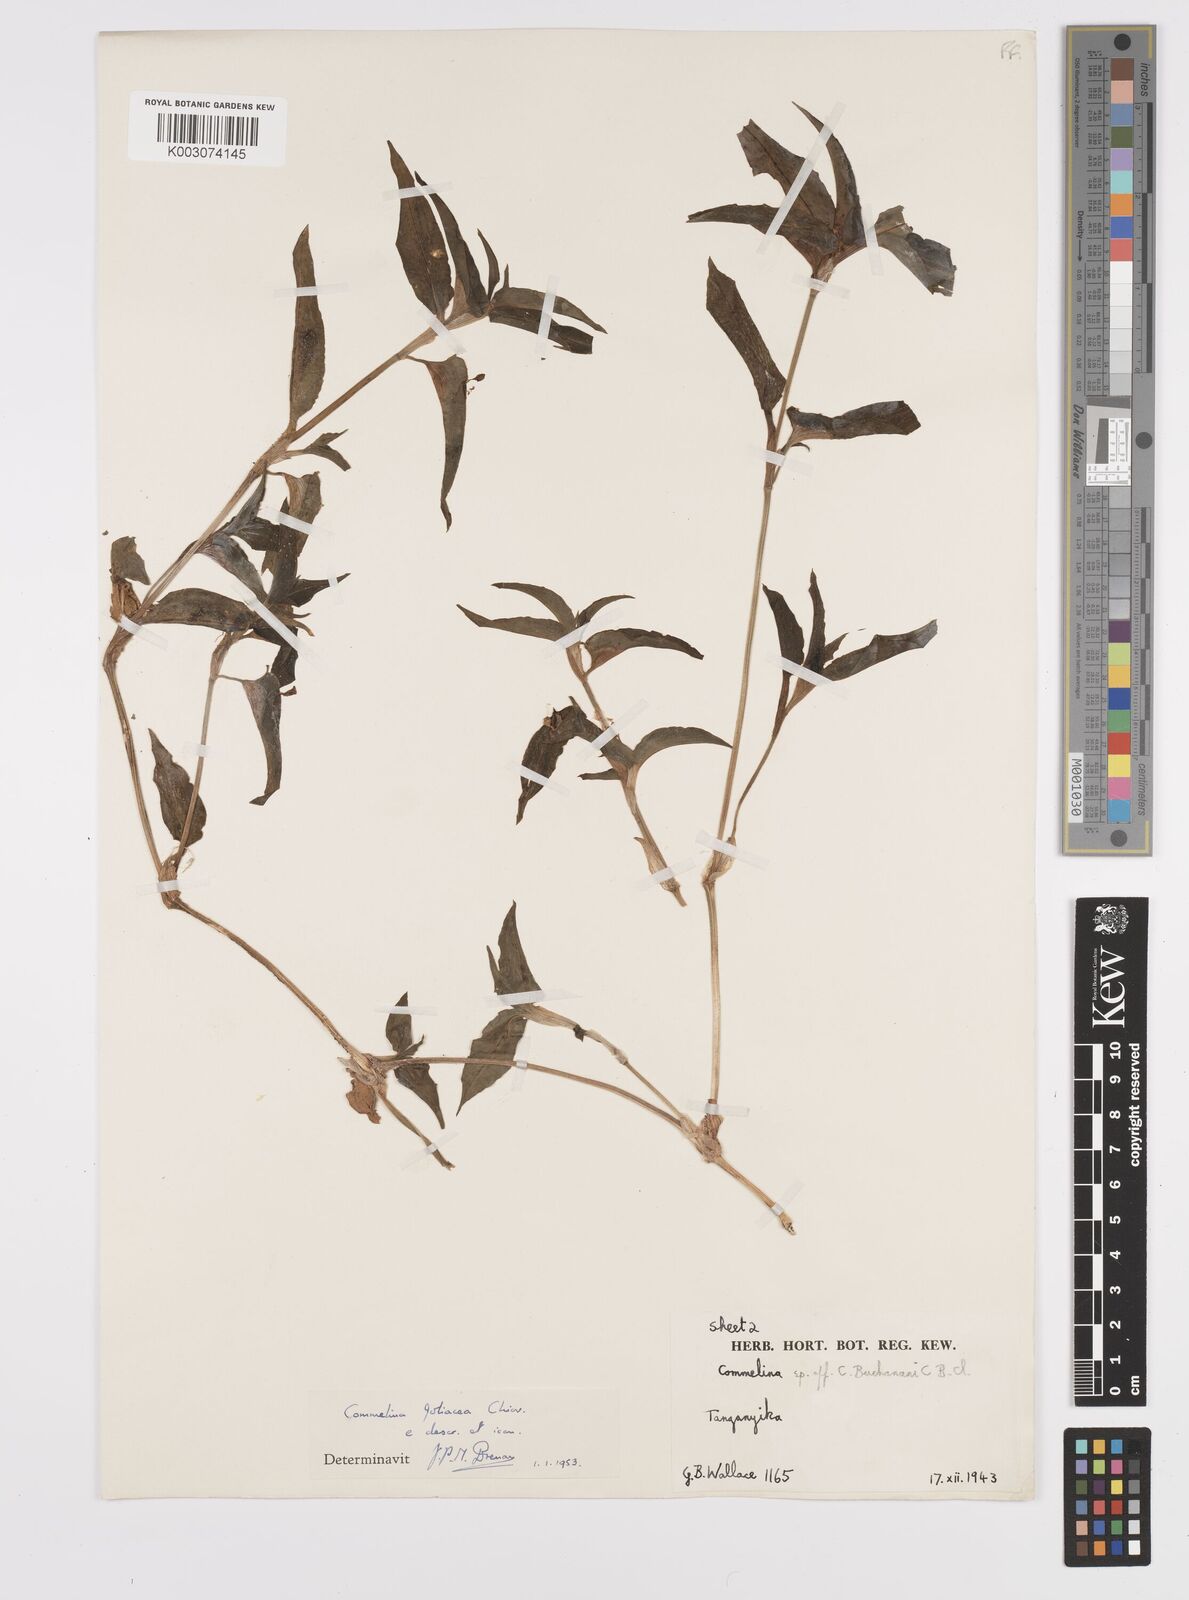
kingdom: Plantae
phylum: Tracheophyta
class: Liliopsida
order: Commelinales
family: Commelinaceae
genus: Commelina
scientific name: Commelina foliacea
